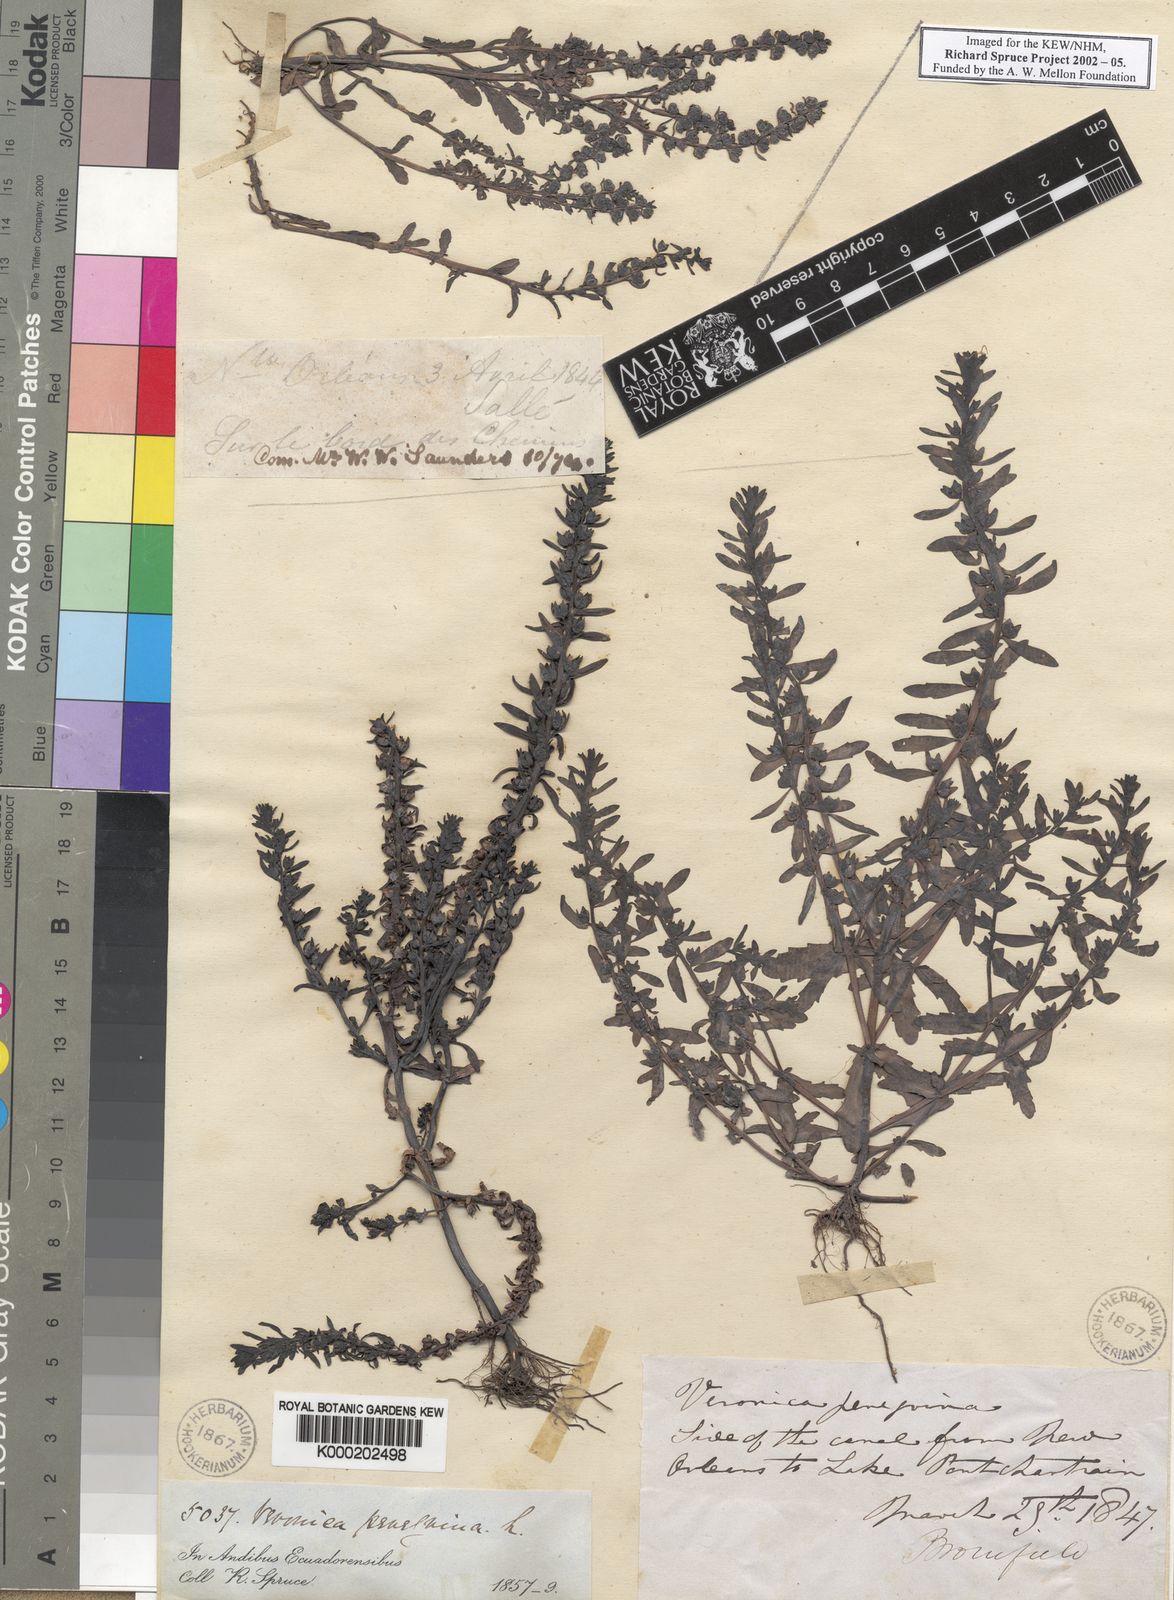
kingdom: Plantae
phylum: Tracheophyta
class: Magnoliopsida
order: Lamiales
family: Plantaginaceae
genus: Veronica
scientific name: Veronica peregrina
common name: Neckweed
